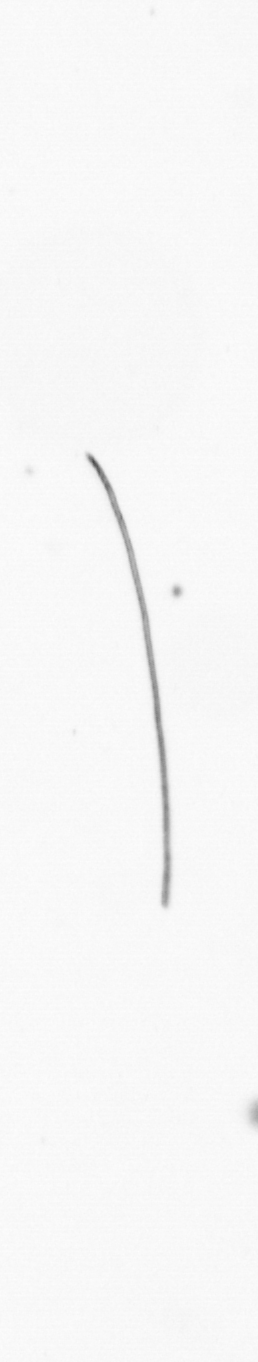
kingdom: Chromista
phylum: Ochrophyta
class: Bacillariophyceae
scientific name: Bacillariophyceae
